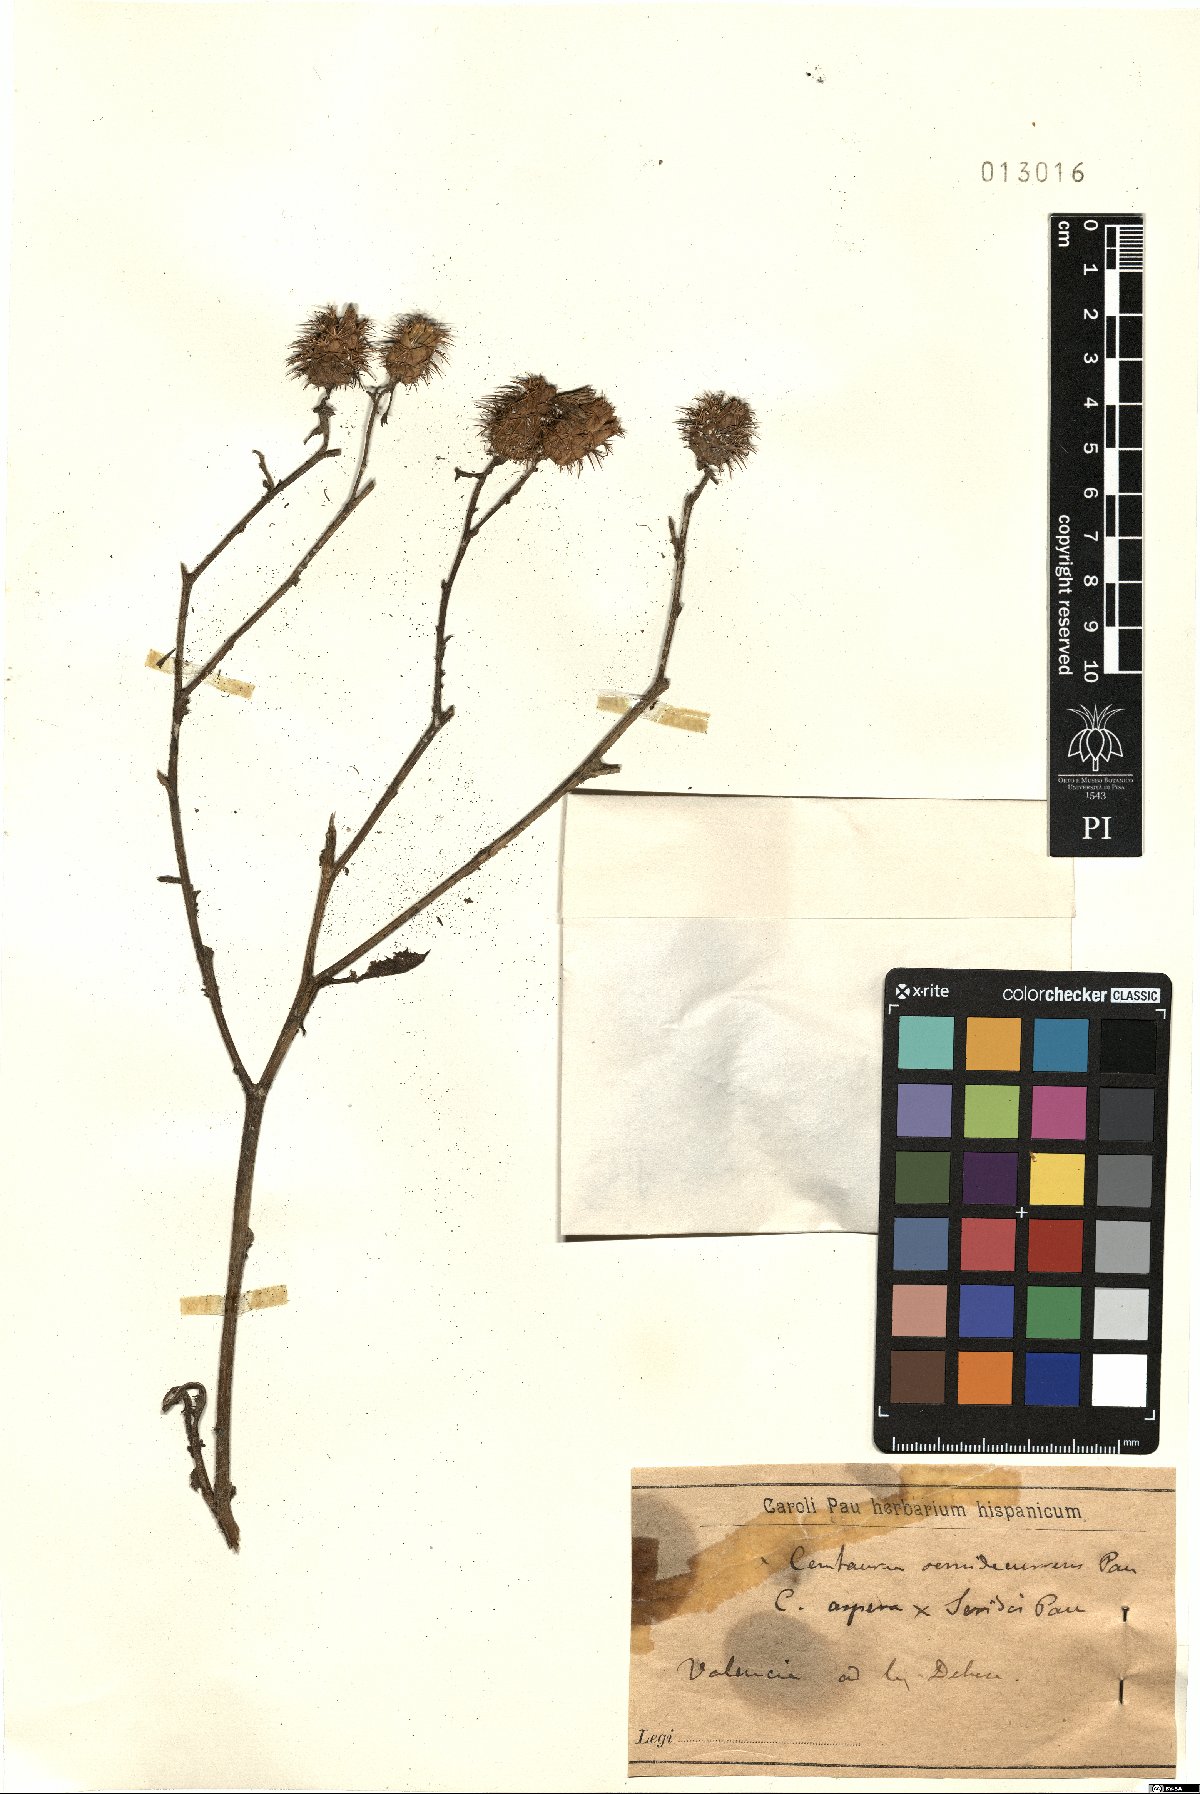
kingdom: Plantae
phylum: Tracheophyta
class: Magnoliopsida
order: Asterales
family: Asteraceae
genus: Centaurea
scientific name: Centaurea aspera
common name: Rough star-thistle
